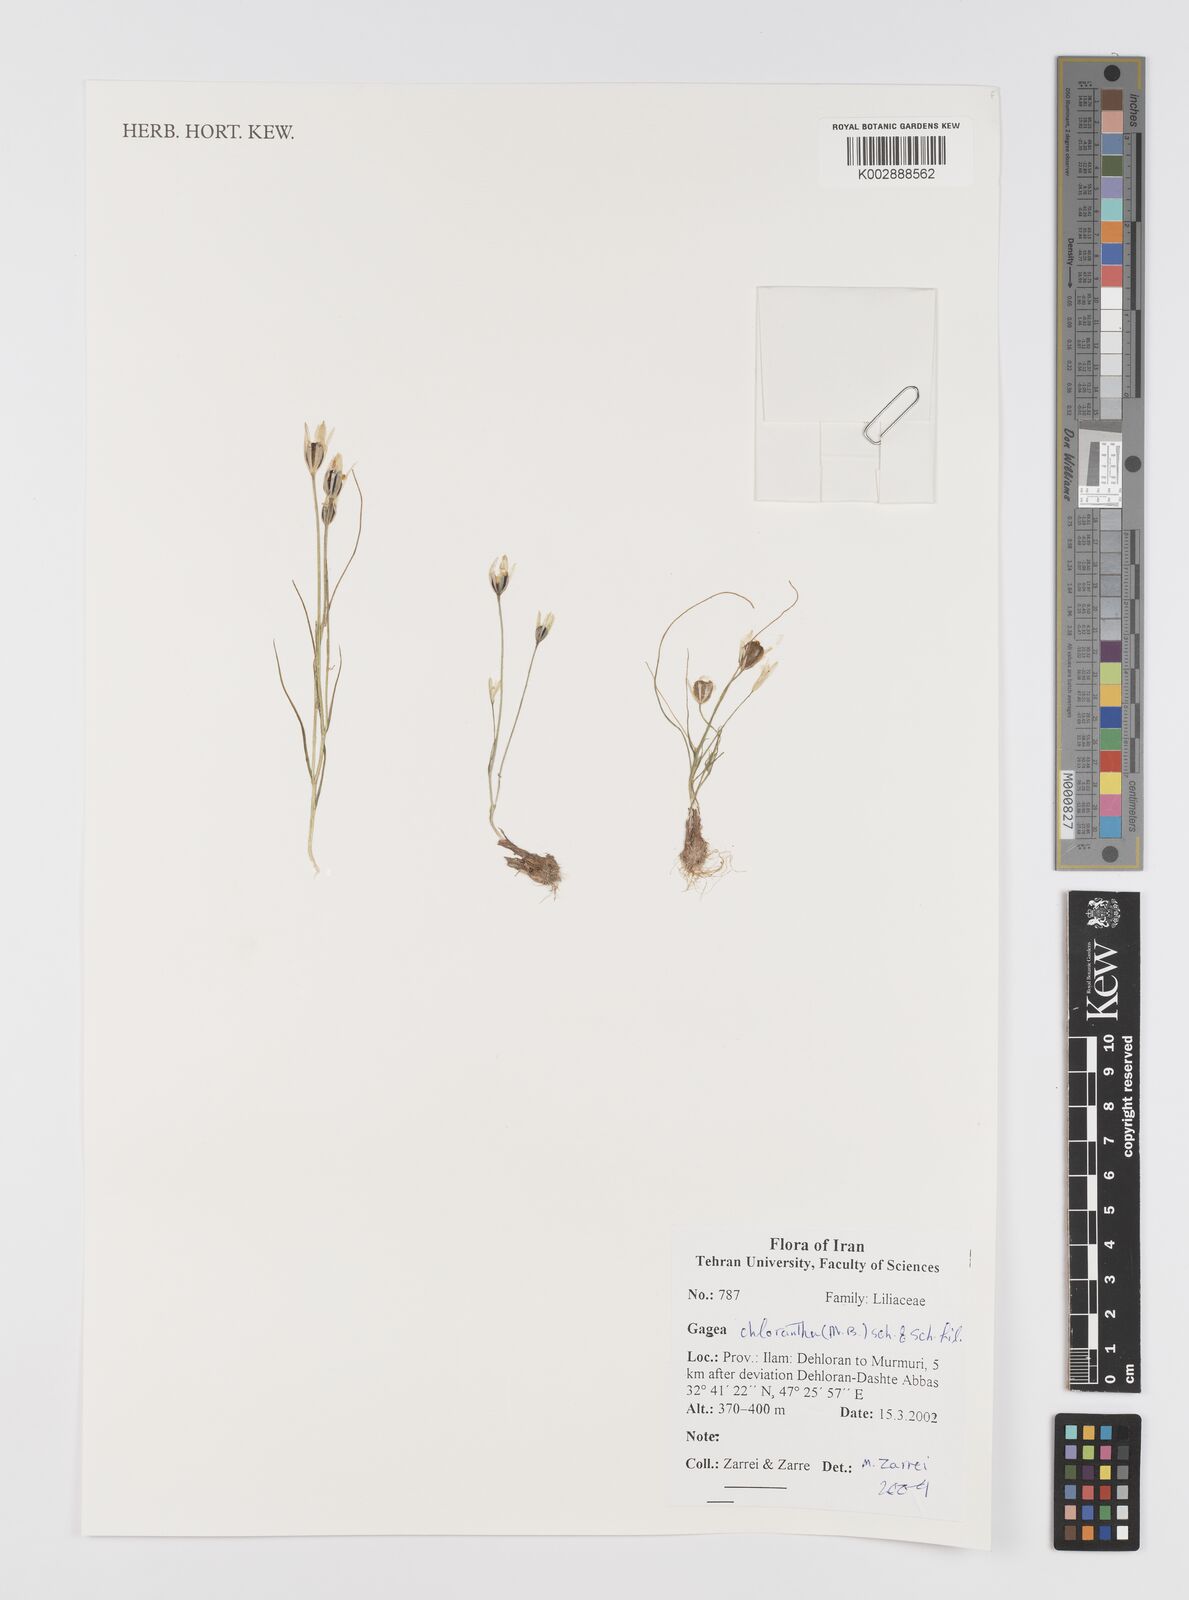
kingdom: Plantae
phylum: Tracheophyta
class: Liliopsida
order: Liliales
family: Liliaceae
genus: Gagea
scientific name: Gagea chlorantha
